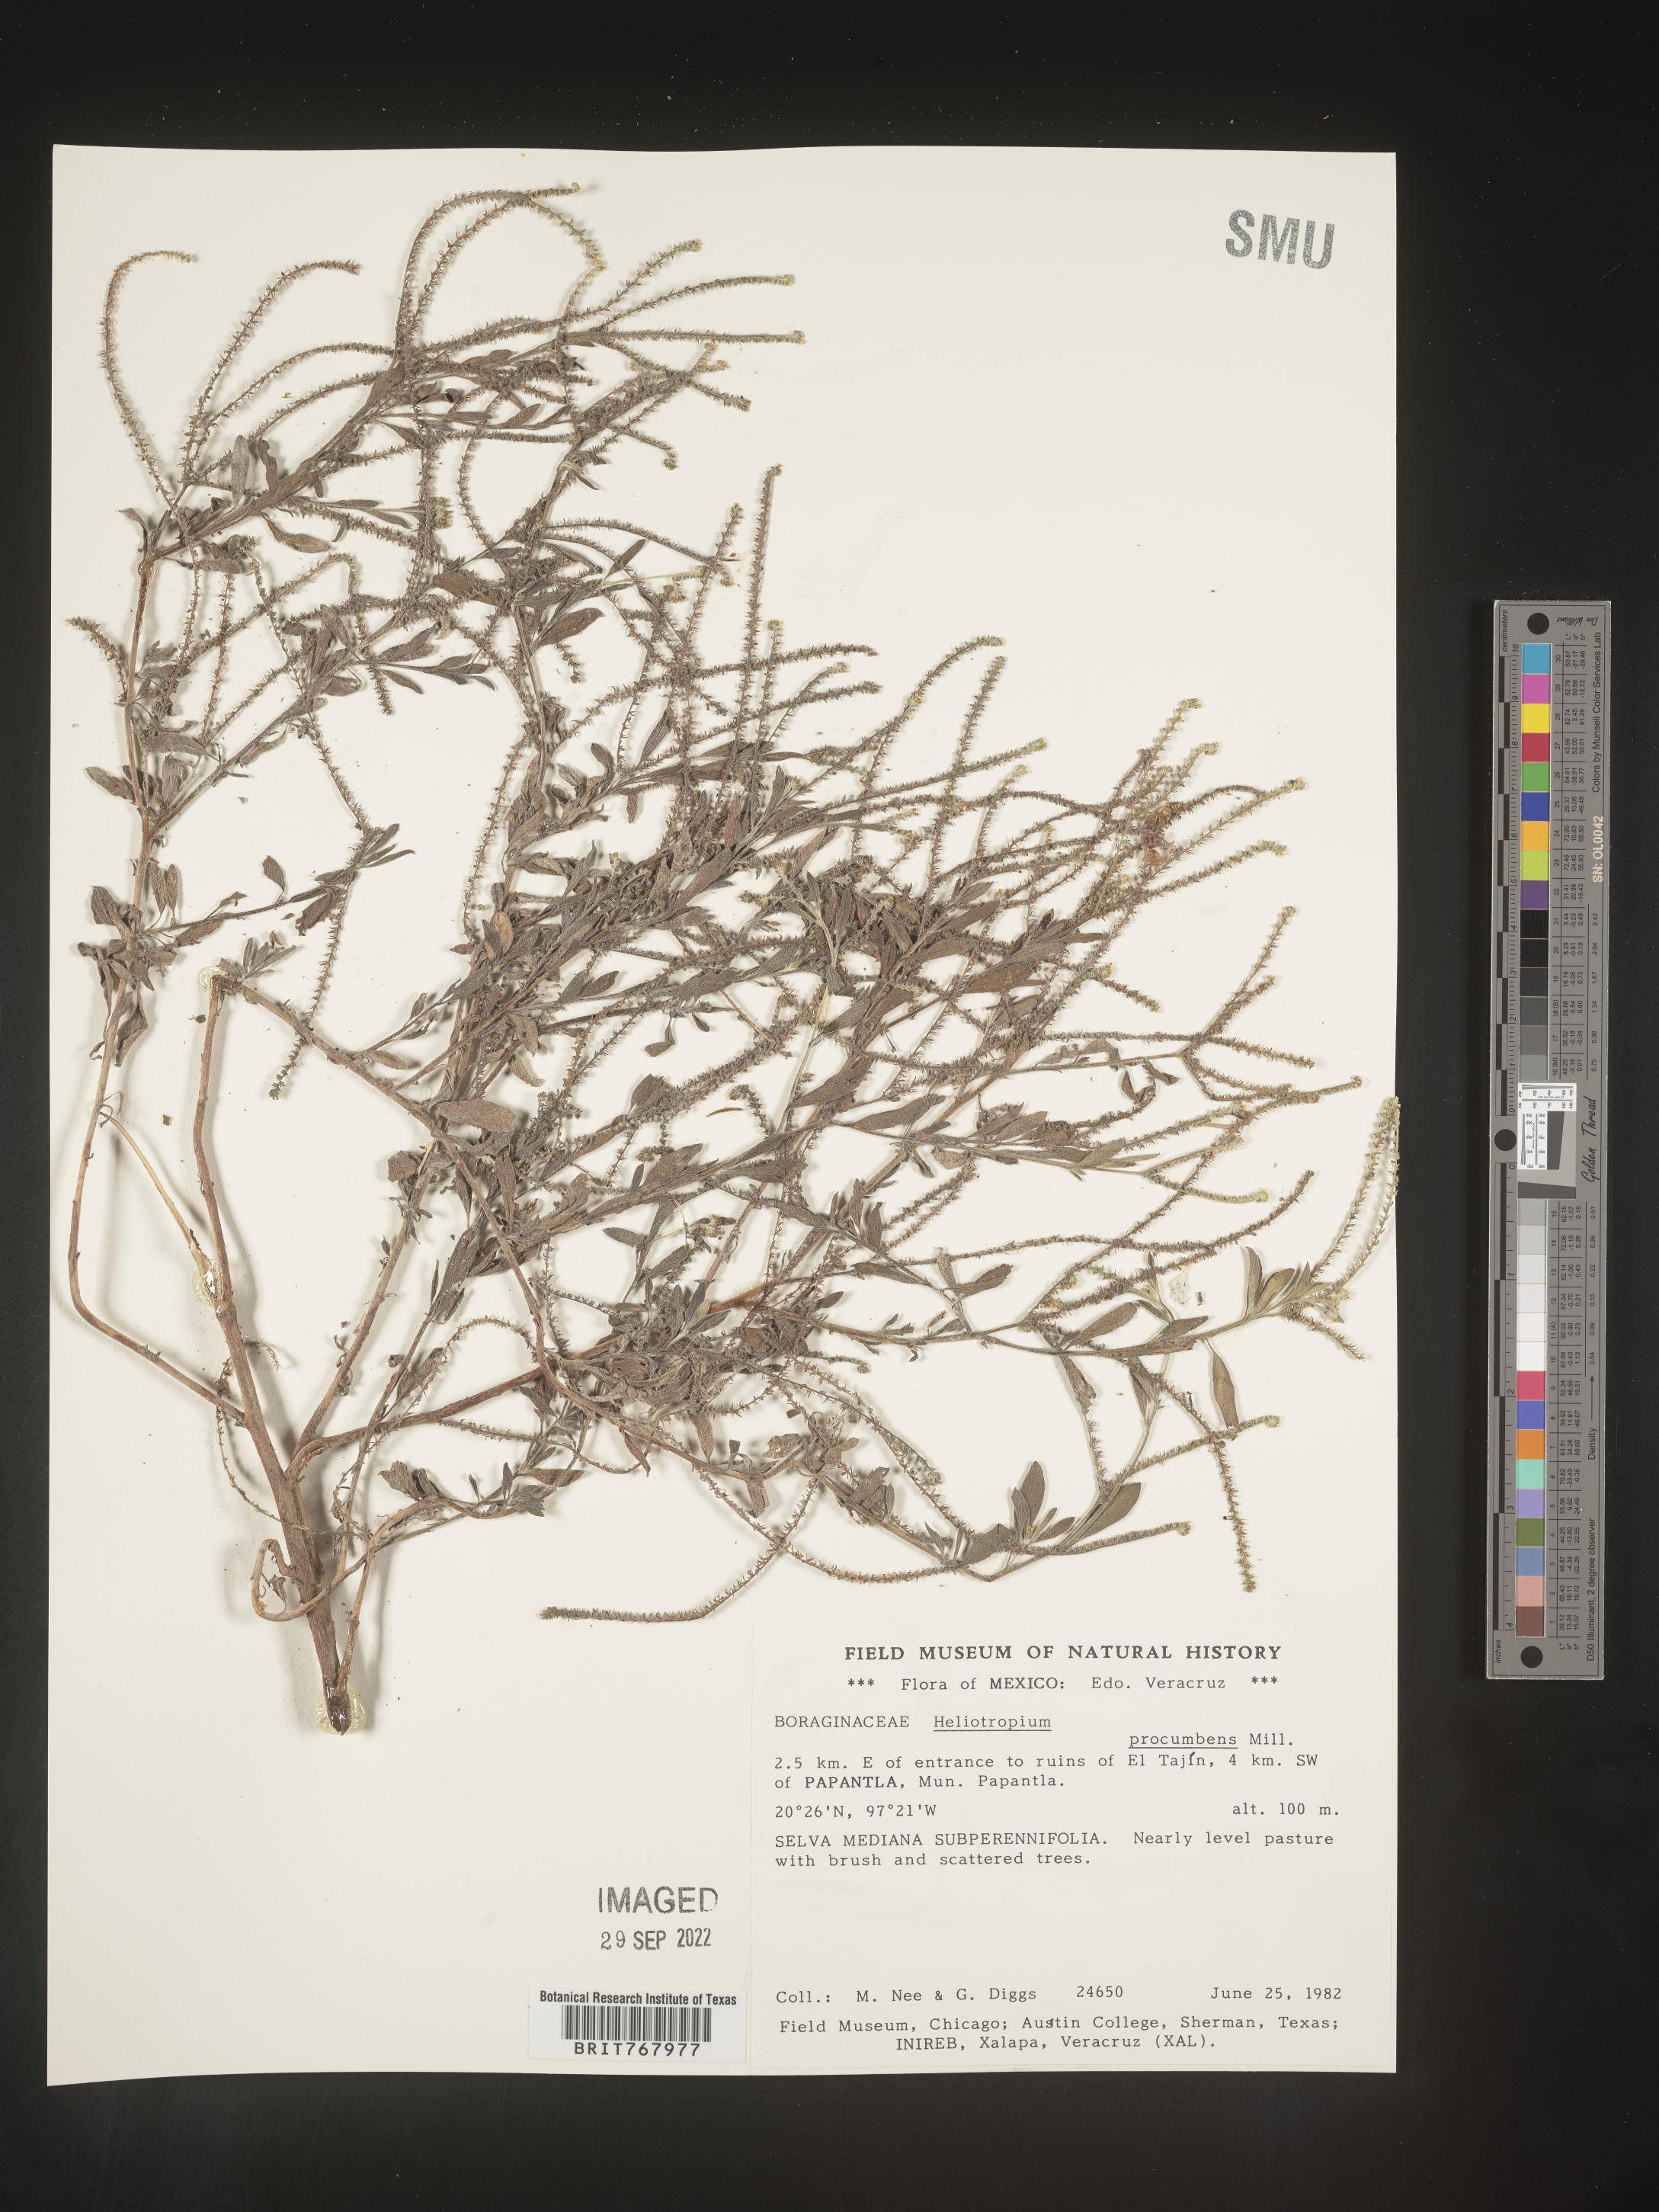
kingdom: Plantae
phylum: Tracheophyta
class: Magnoliopsida
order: Boraginales
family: Heliotropiaceae
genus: Heliotropium
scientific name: Heliotropium
